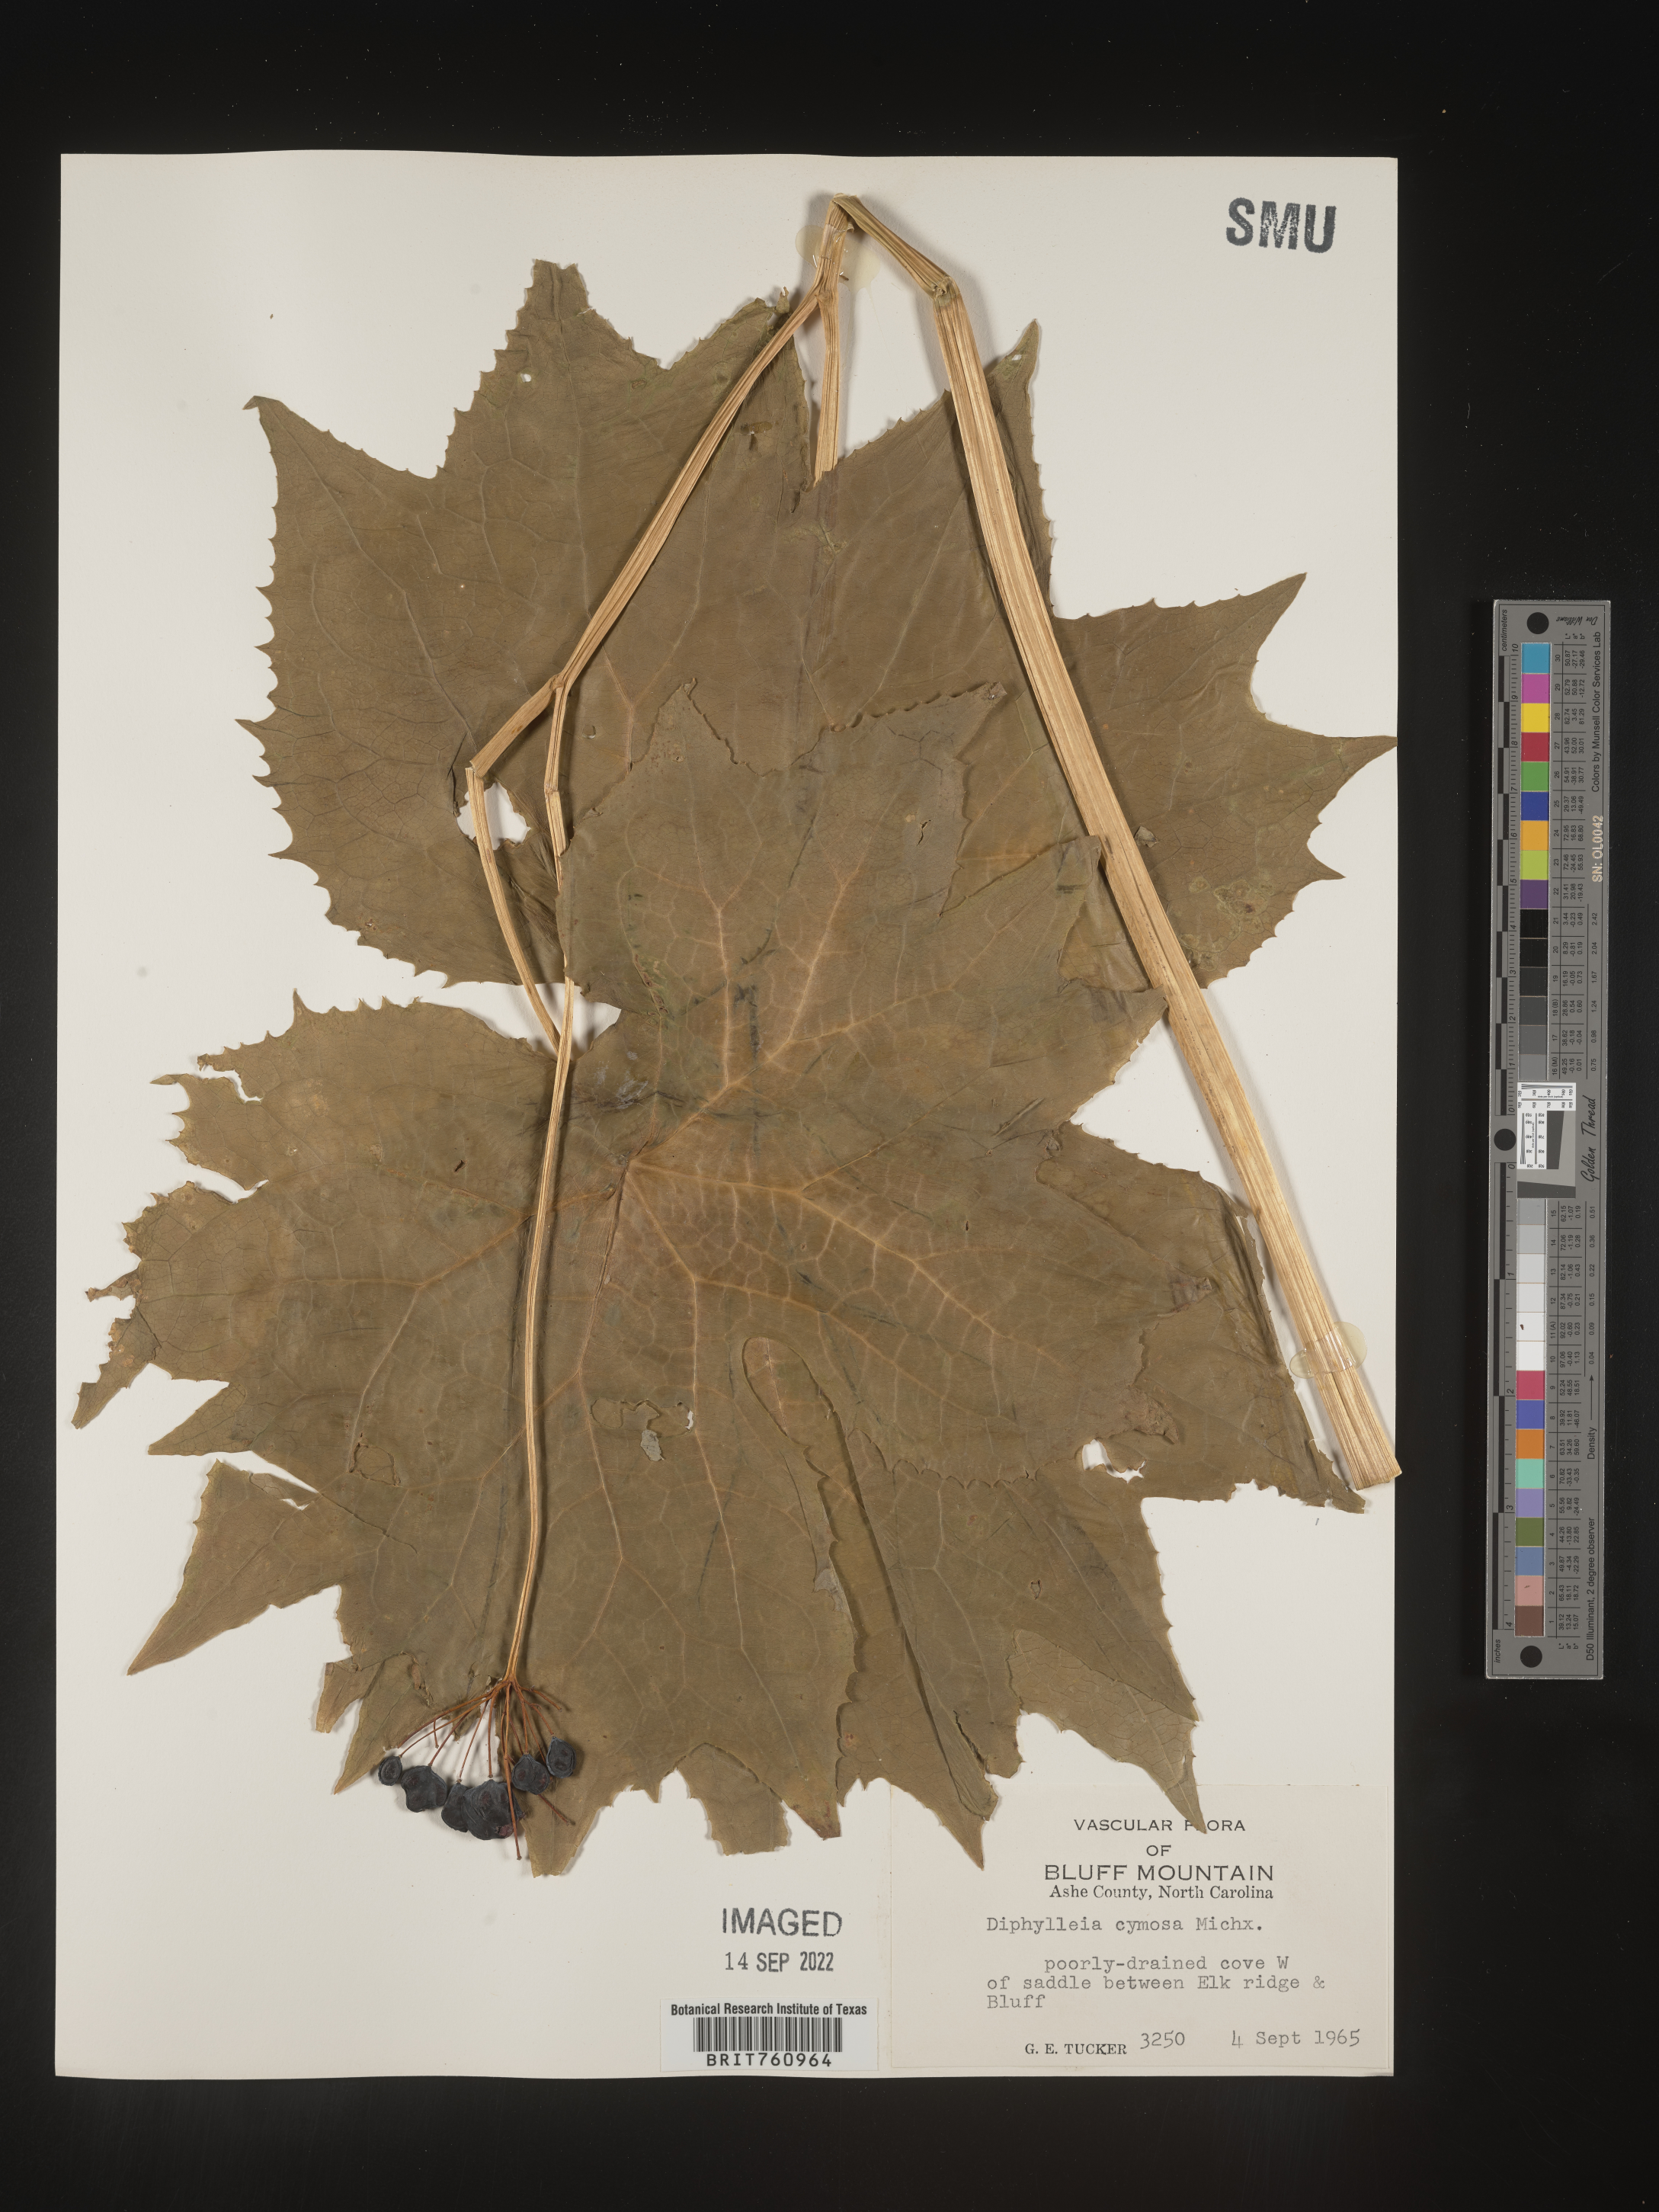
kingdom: Plantae
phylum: Tracheophyta
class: Magnoliopsida
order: Ranunculales
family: Berberidaceae
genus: Diphylleia
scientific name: Diphylleia
